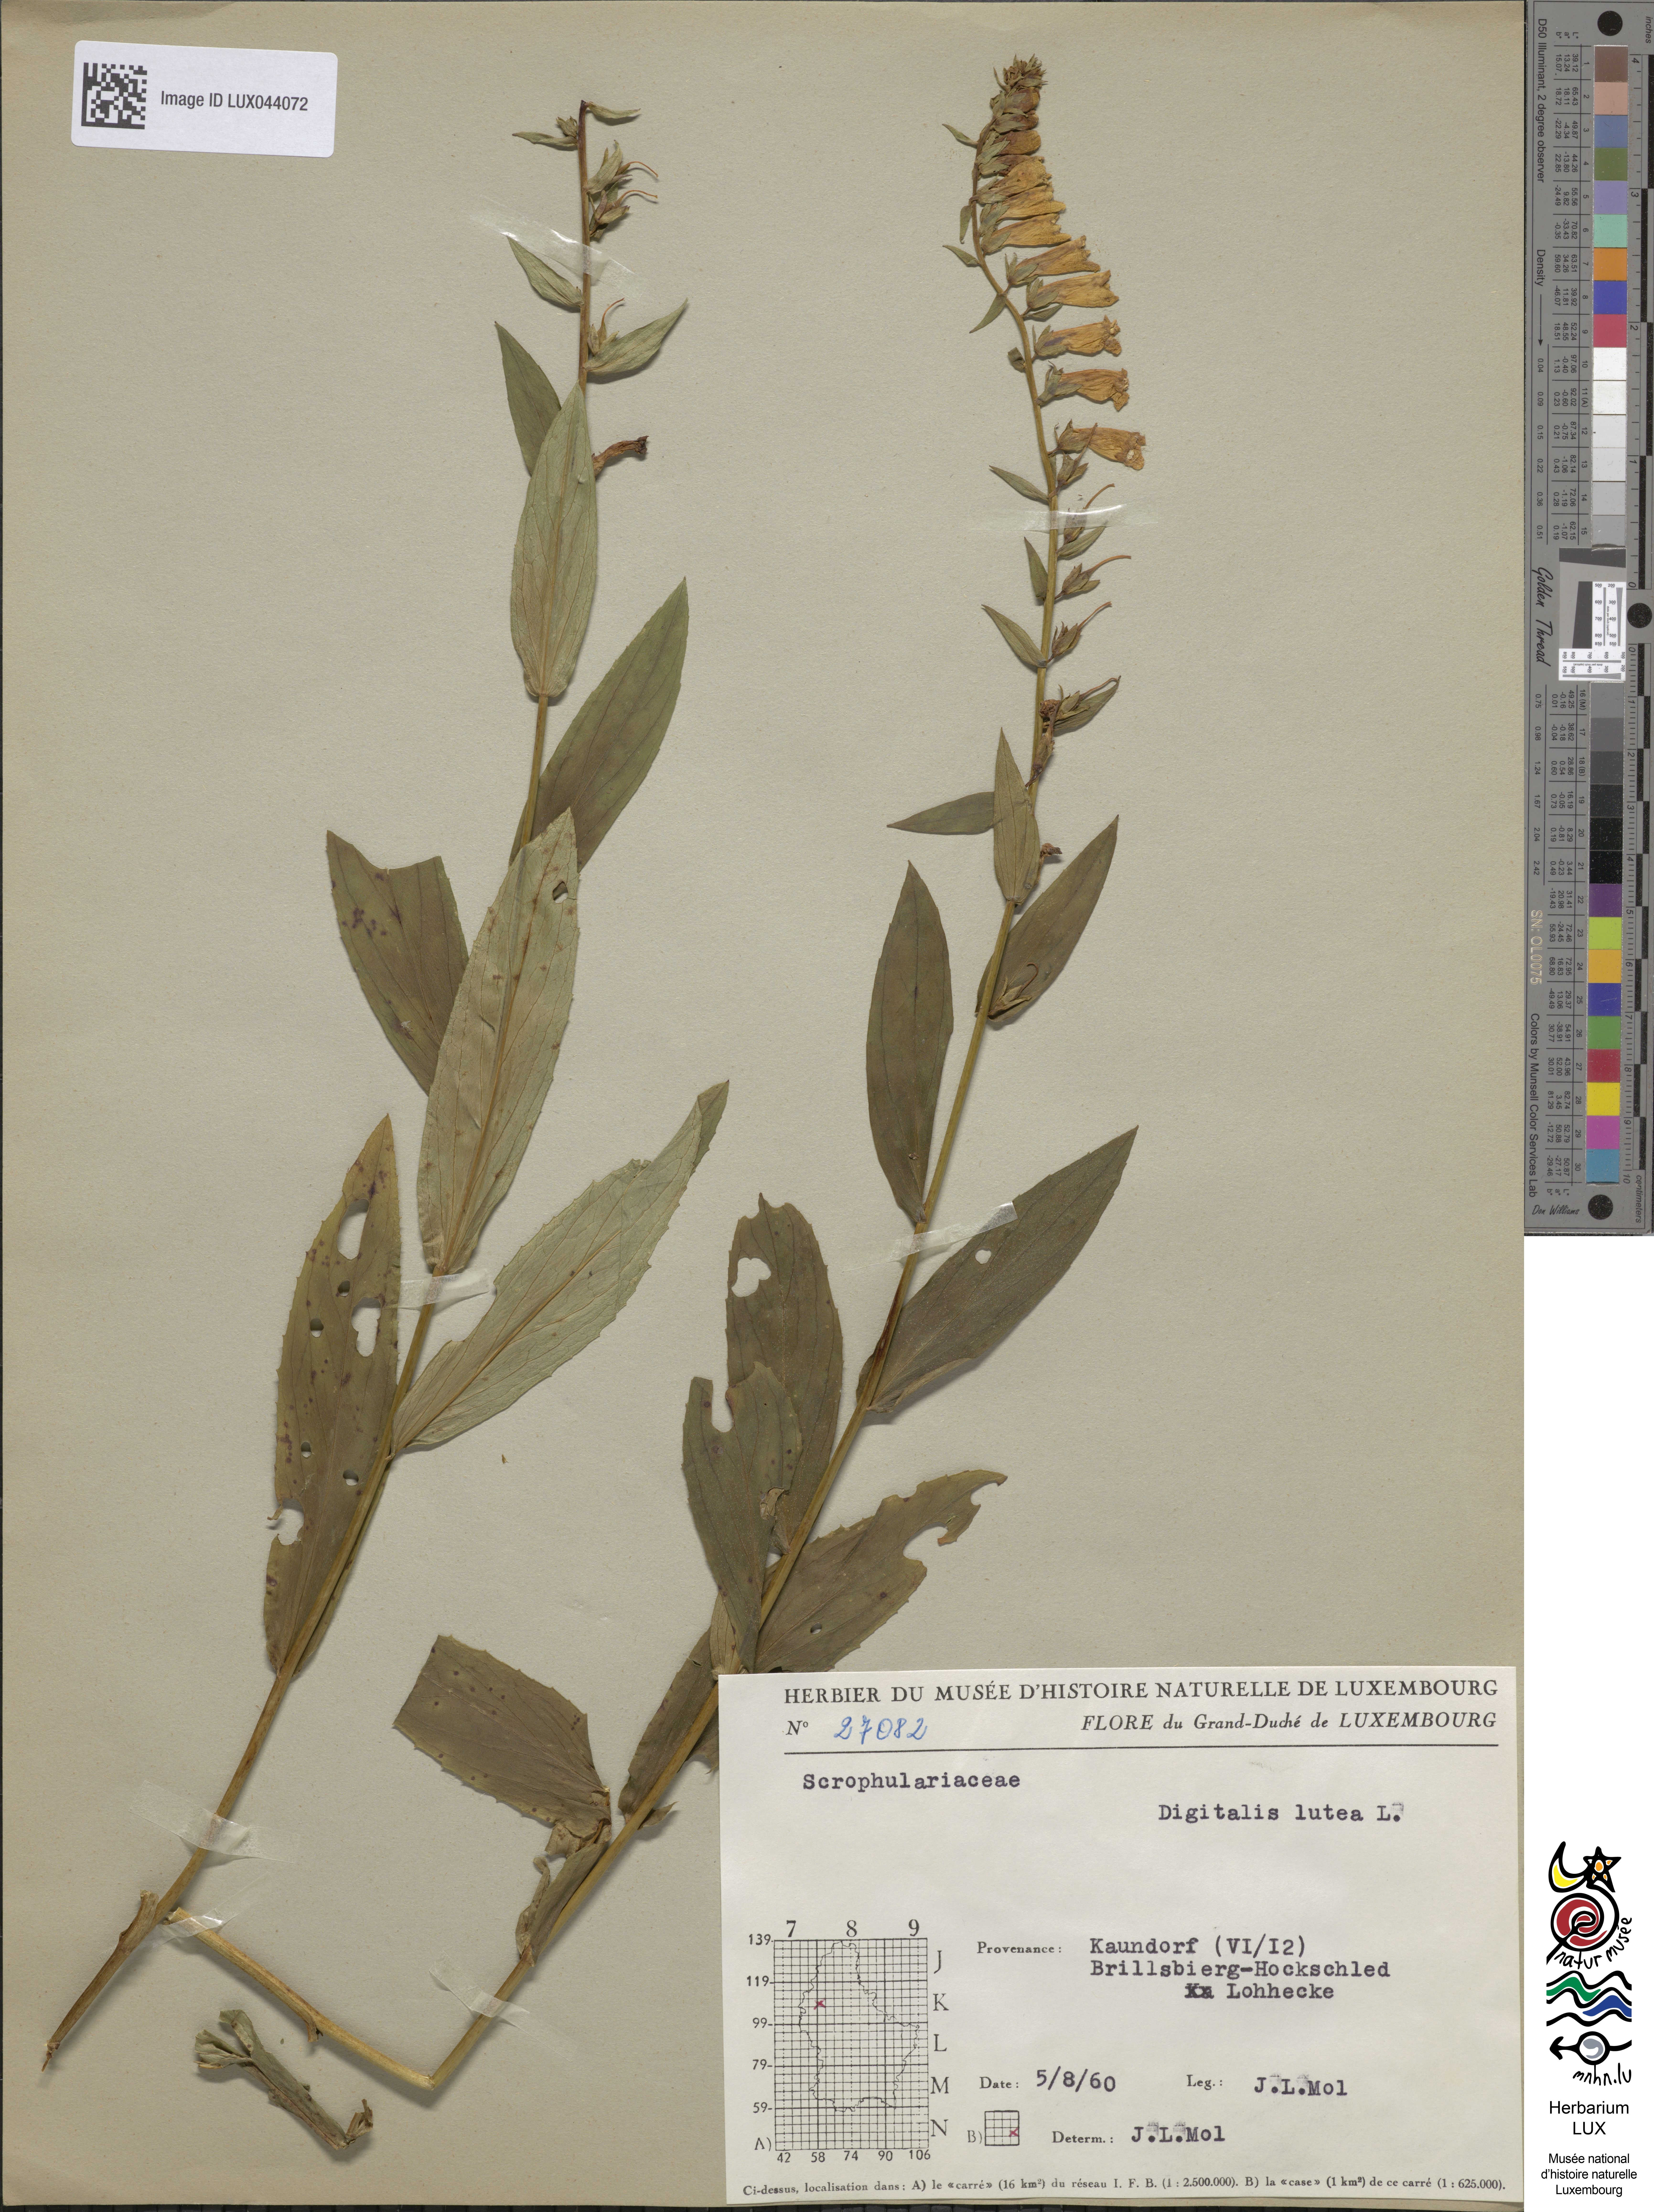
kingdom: Plantae
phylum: Tracheophyta
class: Magnoliopsida
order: Lamiales
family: Plantaginaceae
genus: Digitalis
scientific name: Digitalis lutea
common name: Straw foxglove
